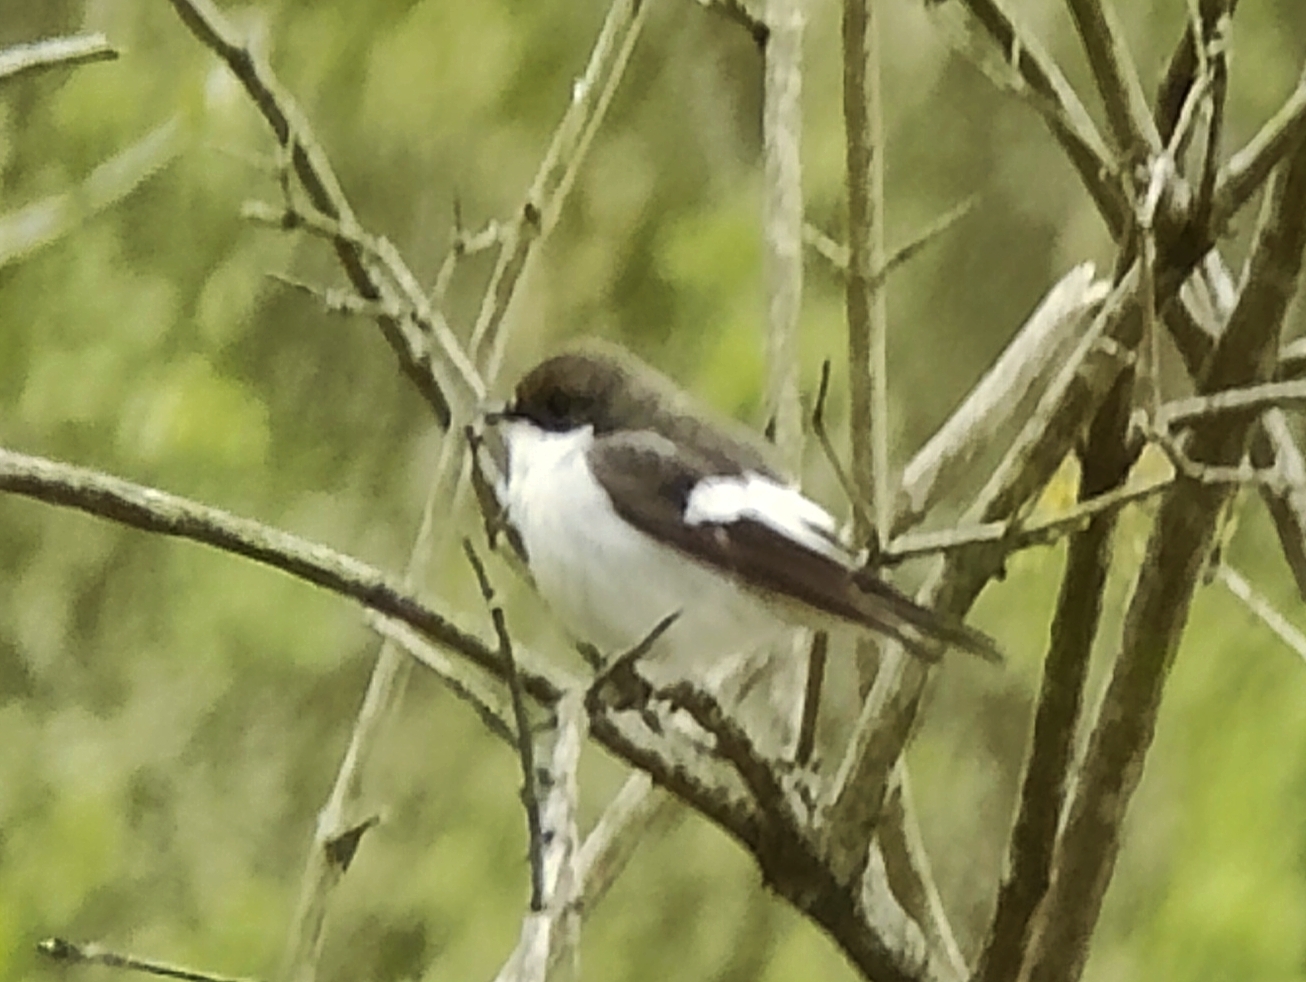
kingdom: Animalia
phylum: Chordata
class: Aves
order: Passeriformes
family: Muscicapidae
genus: Ficedula
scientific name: Ficedula hypoleuca
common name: Broget fluesnapper
